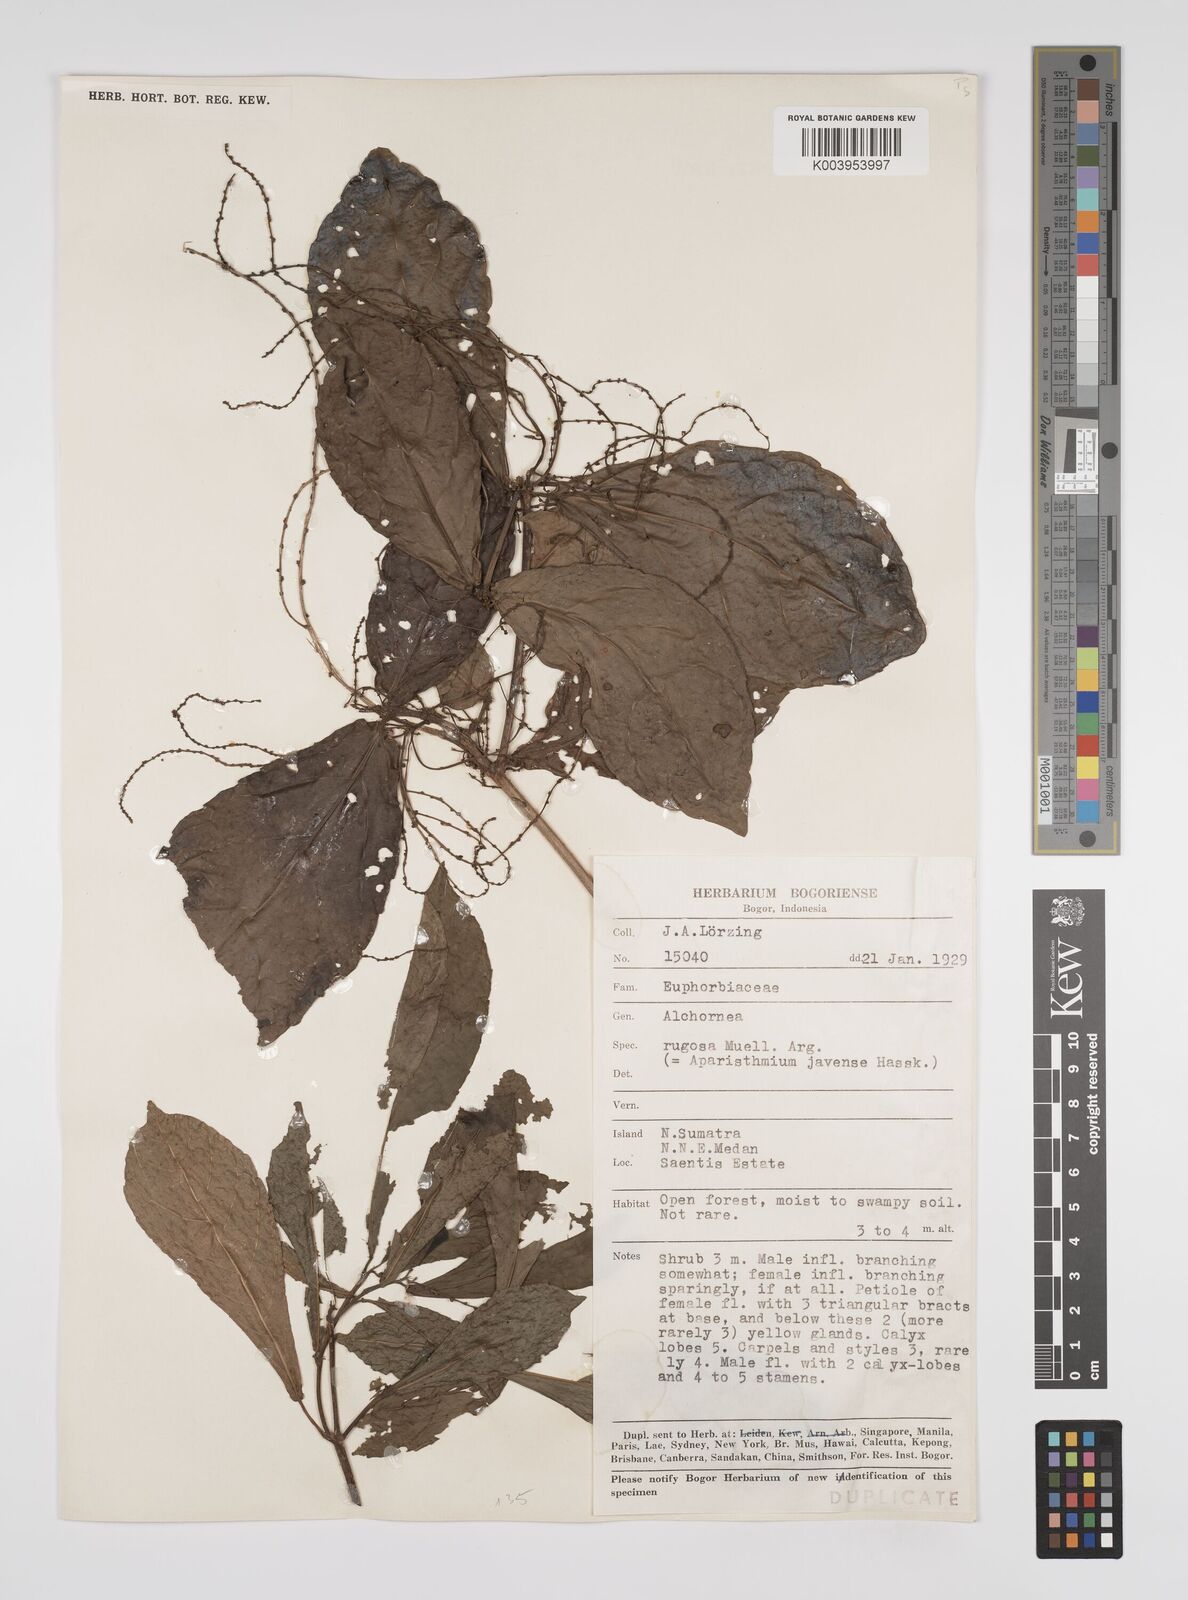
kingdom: Plantae
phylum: Tracheophyta
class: Magnoliopsida
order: Malpighiales
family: Euphorbiaceae
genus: Alchornea
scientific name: Alchornea rugosa
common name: Alchorntree
